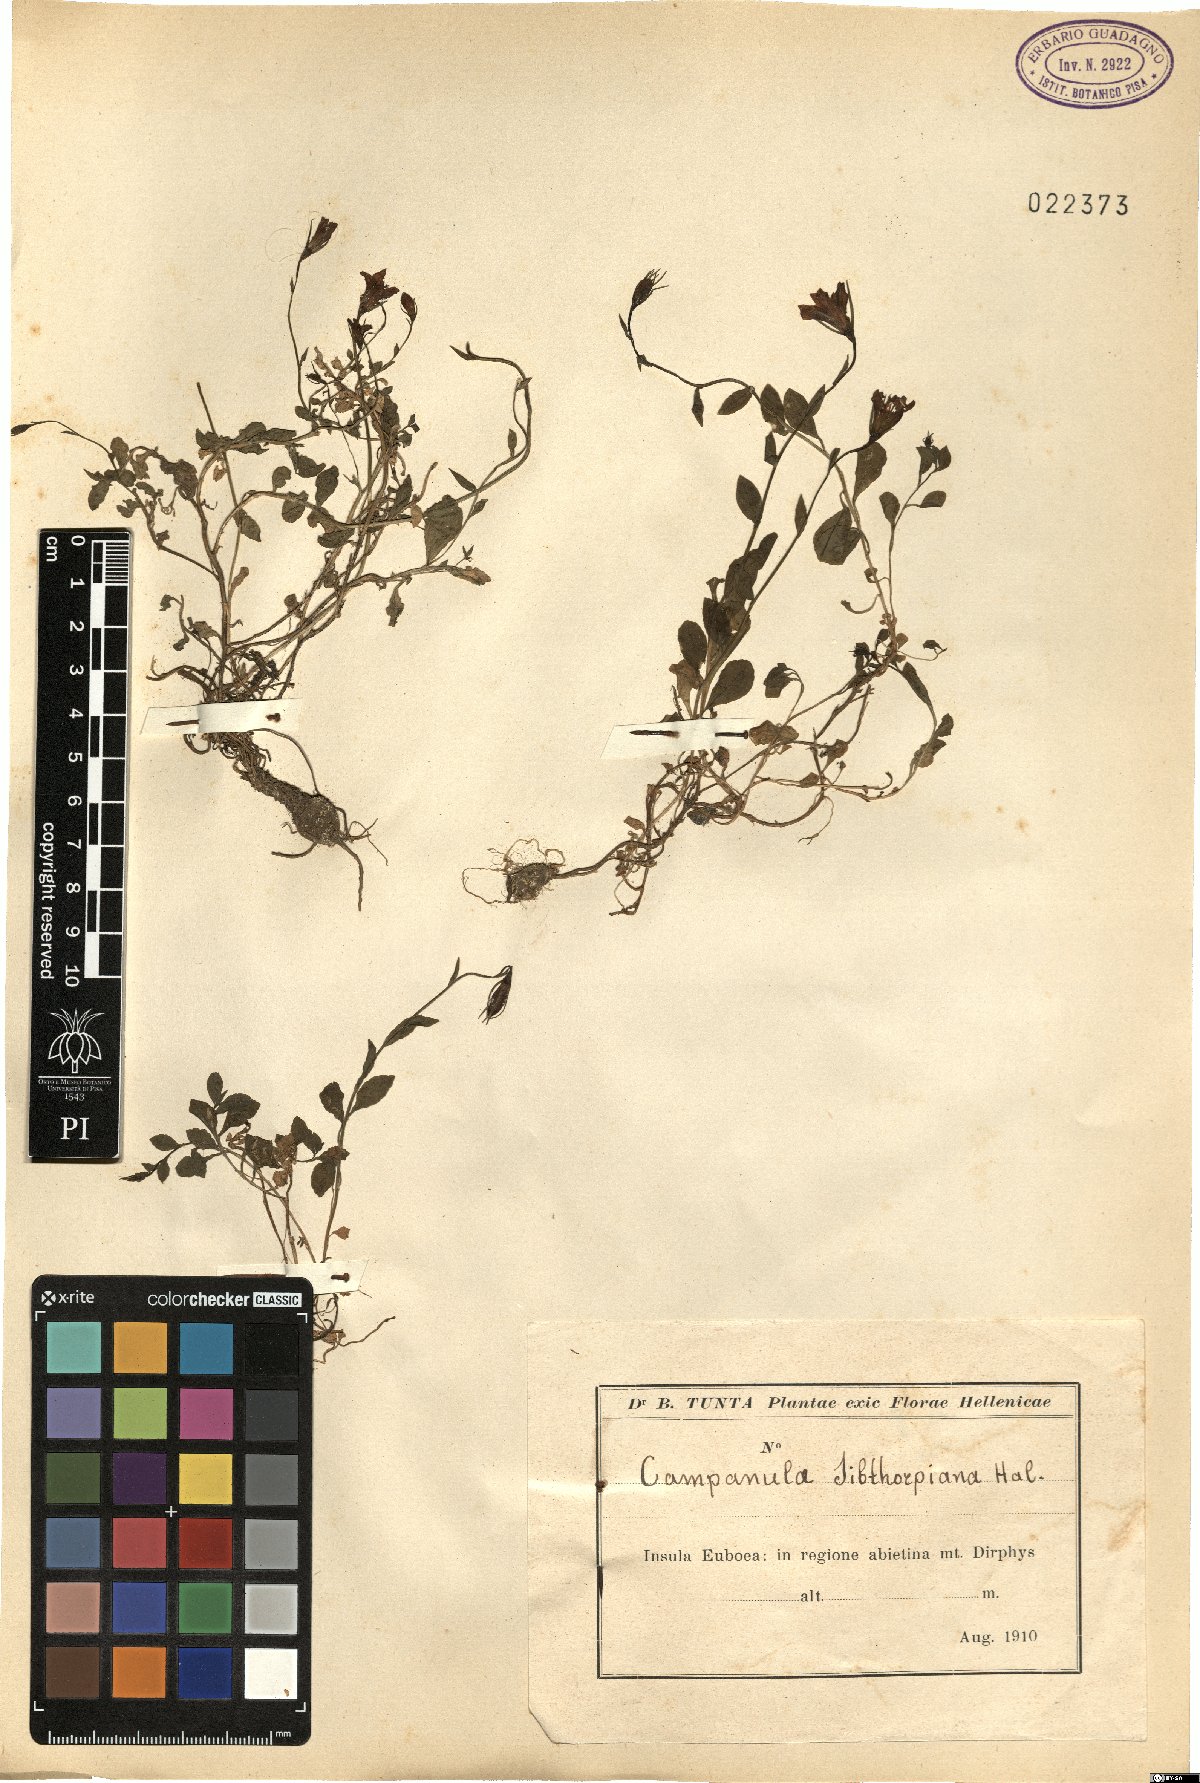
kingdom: Plantae
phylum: Tracheophyta
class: Magnoliopsida
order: Asterales
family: Campanulaceae
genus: Asyneuma
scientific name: Asyneuma rigidum
